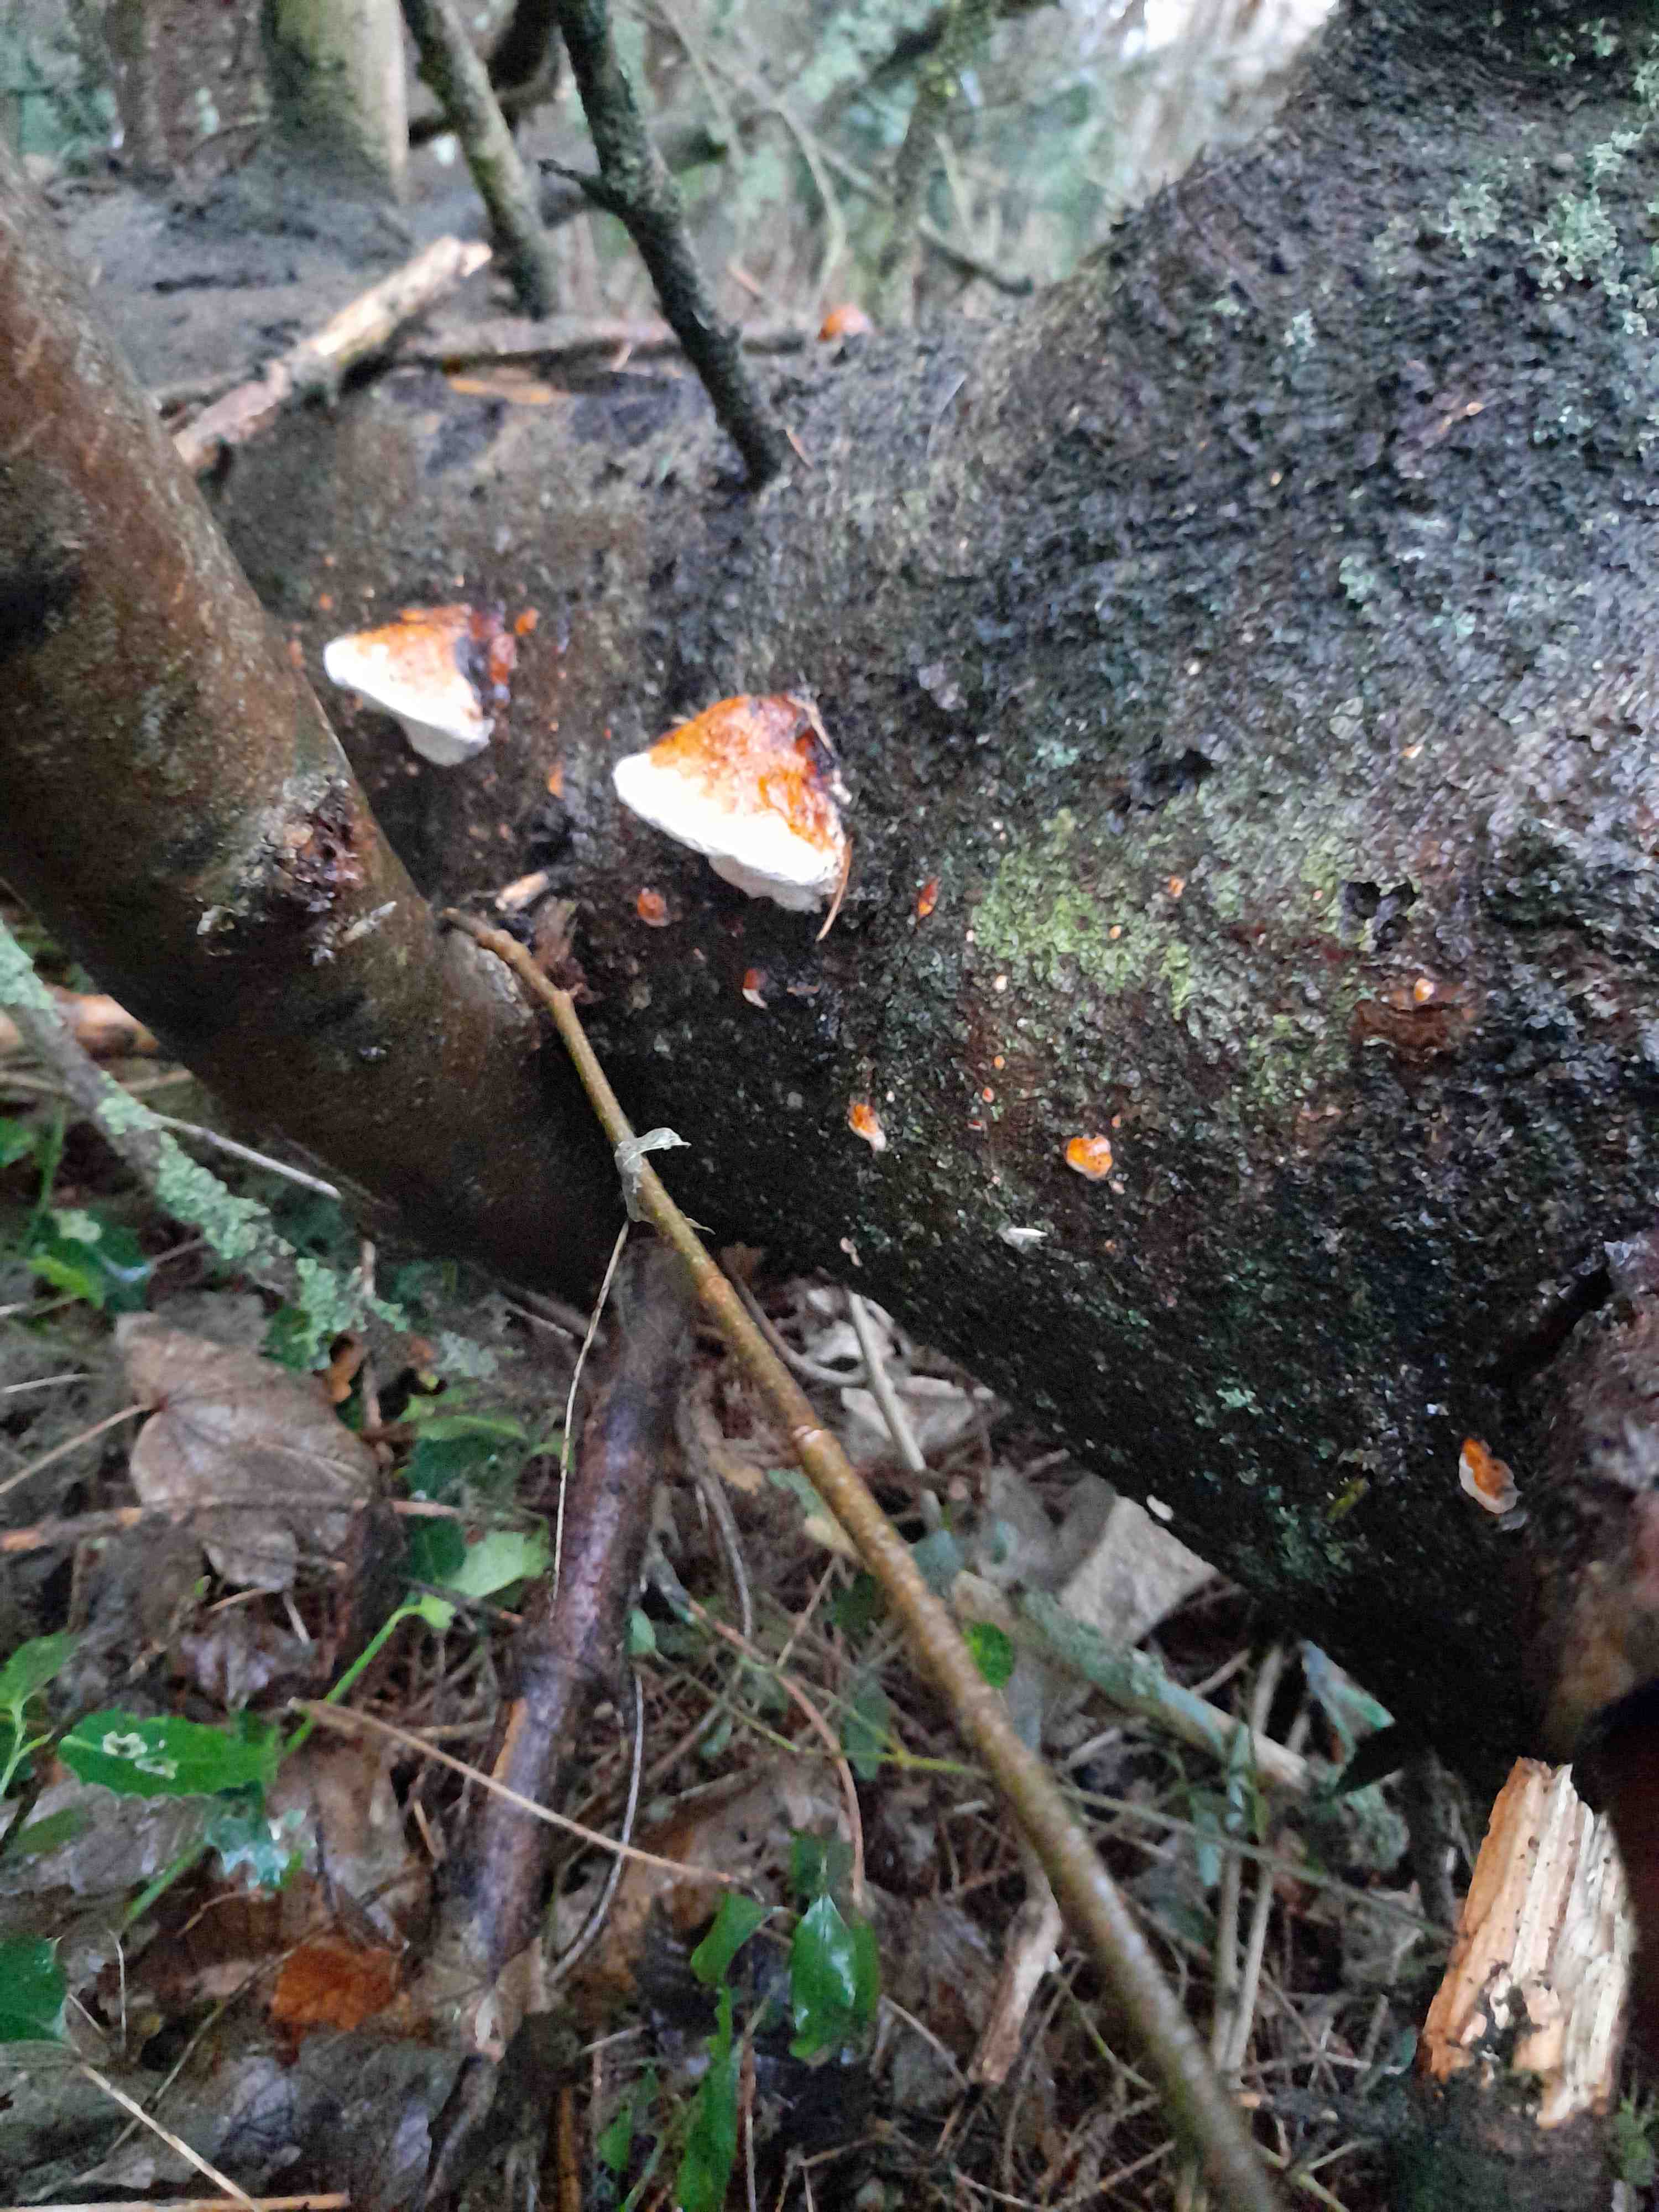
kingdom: Fungi
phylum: Basidiomycota
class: Agaricomycetes
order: Polyporales
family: Fomitopsidaceae
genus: Fomitopsis
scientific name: Fomitopsis pinicola
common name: randbæltet hovporesvamp
